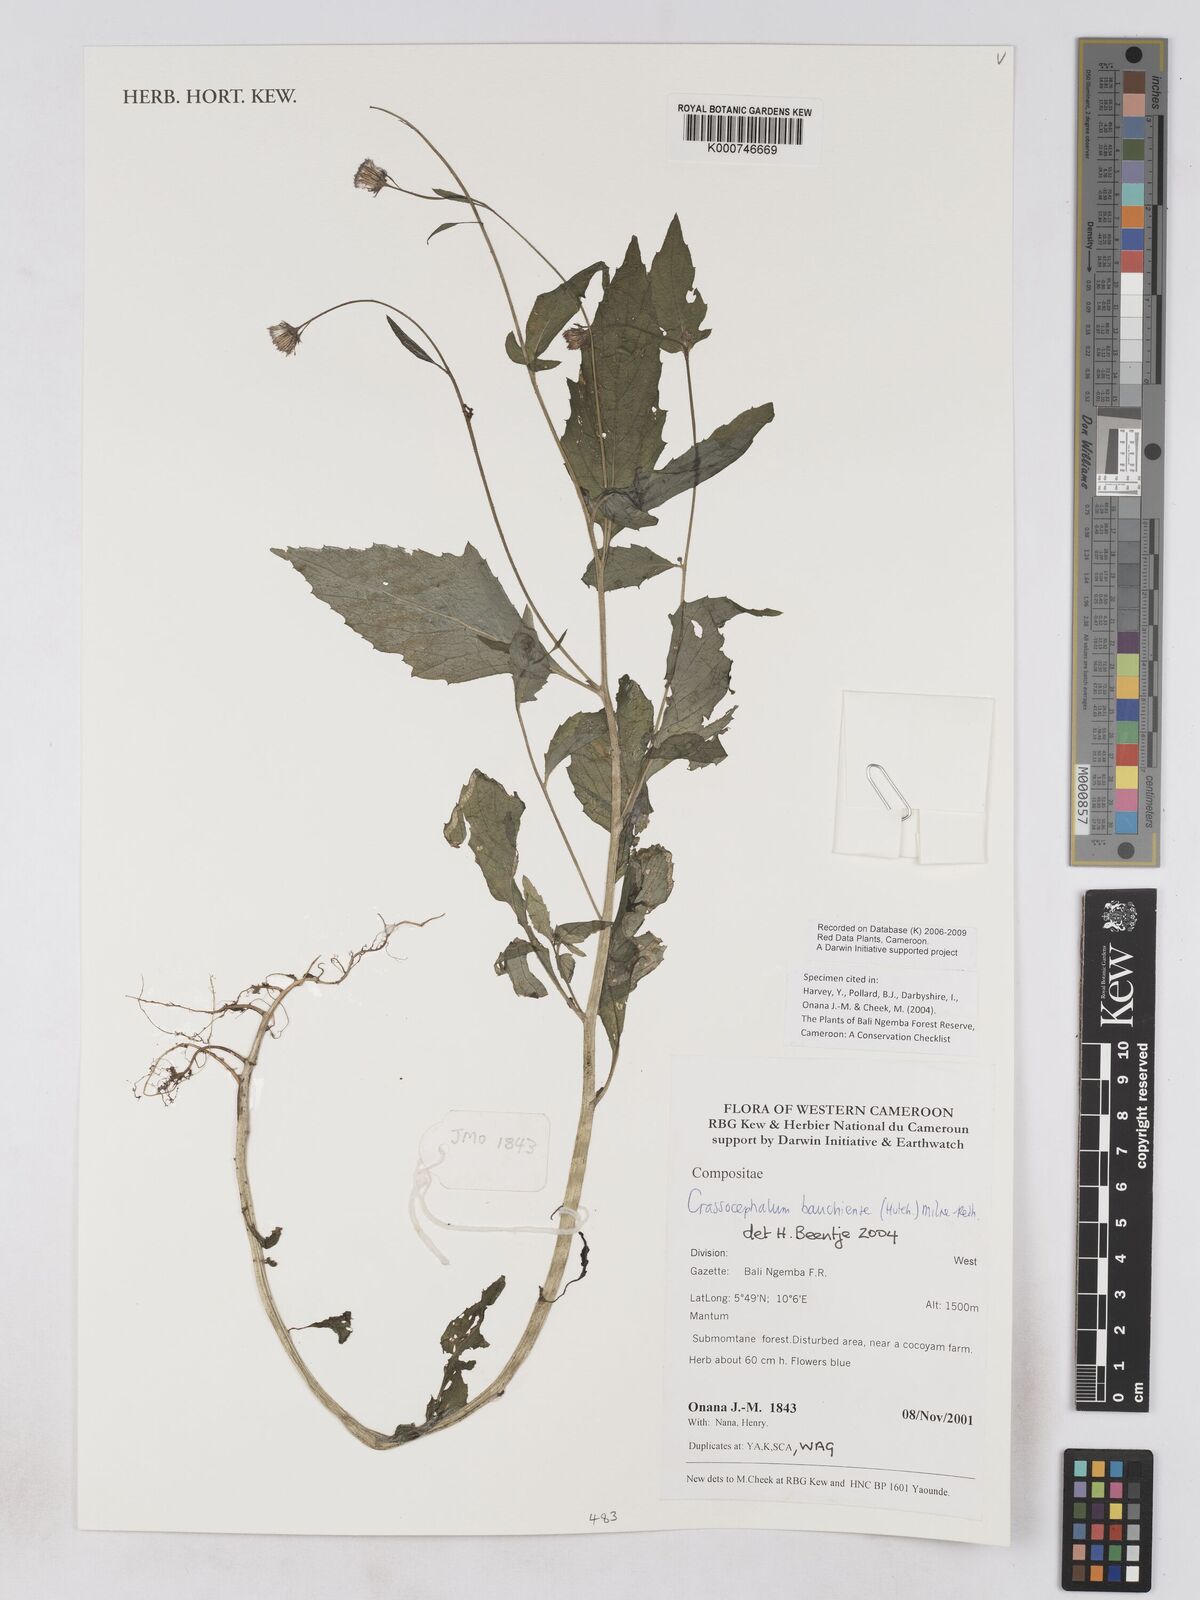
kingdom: Plantae
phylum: Tracheophyta
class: Magnoliopsida
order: Asterales
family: Asteraceae
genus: Crassocephalum
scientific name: Crassocephalum bauchiense
